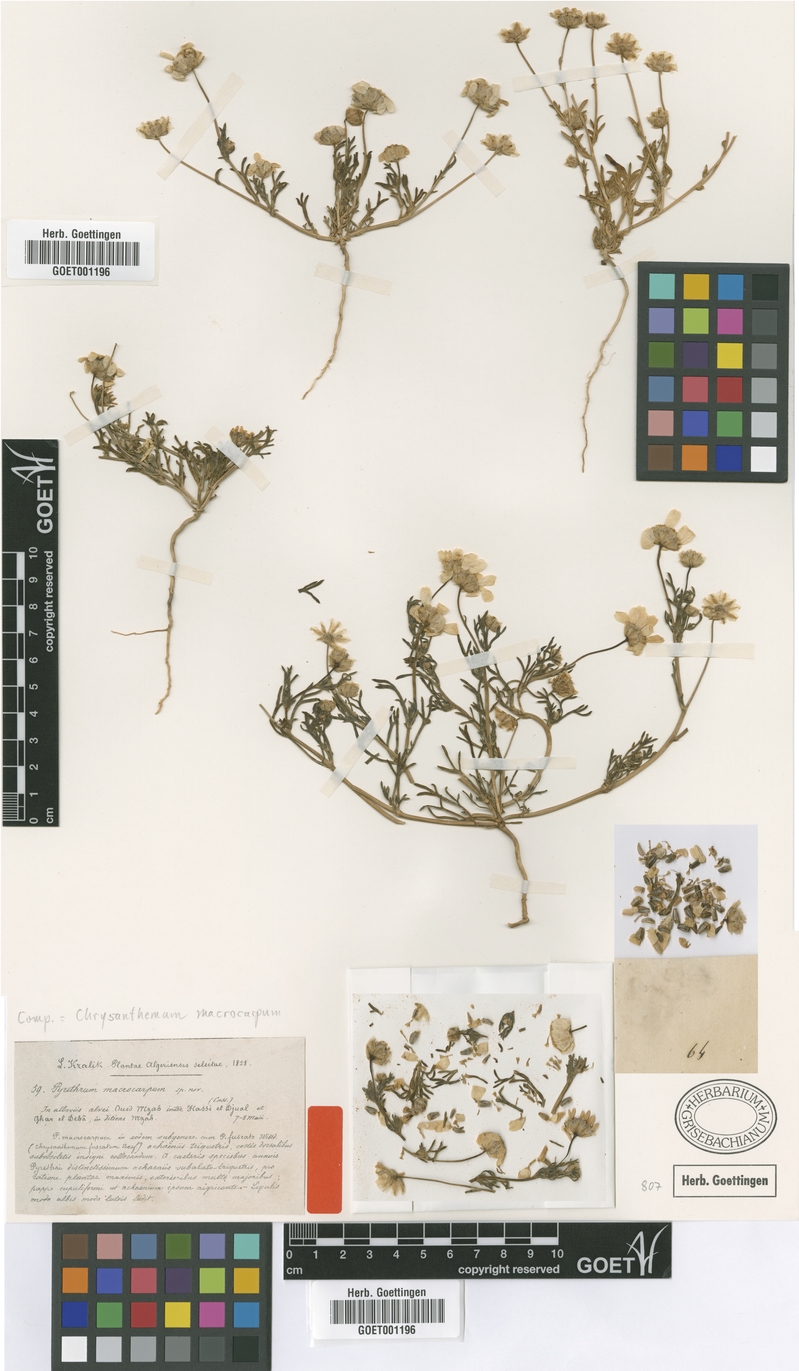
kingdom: Plantae
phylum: Tracheophyta
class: Magnoliopsida
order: Asterales
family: Asteraceae
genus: Endopappus
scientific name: Endopappus macrocarpus
